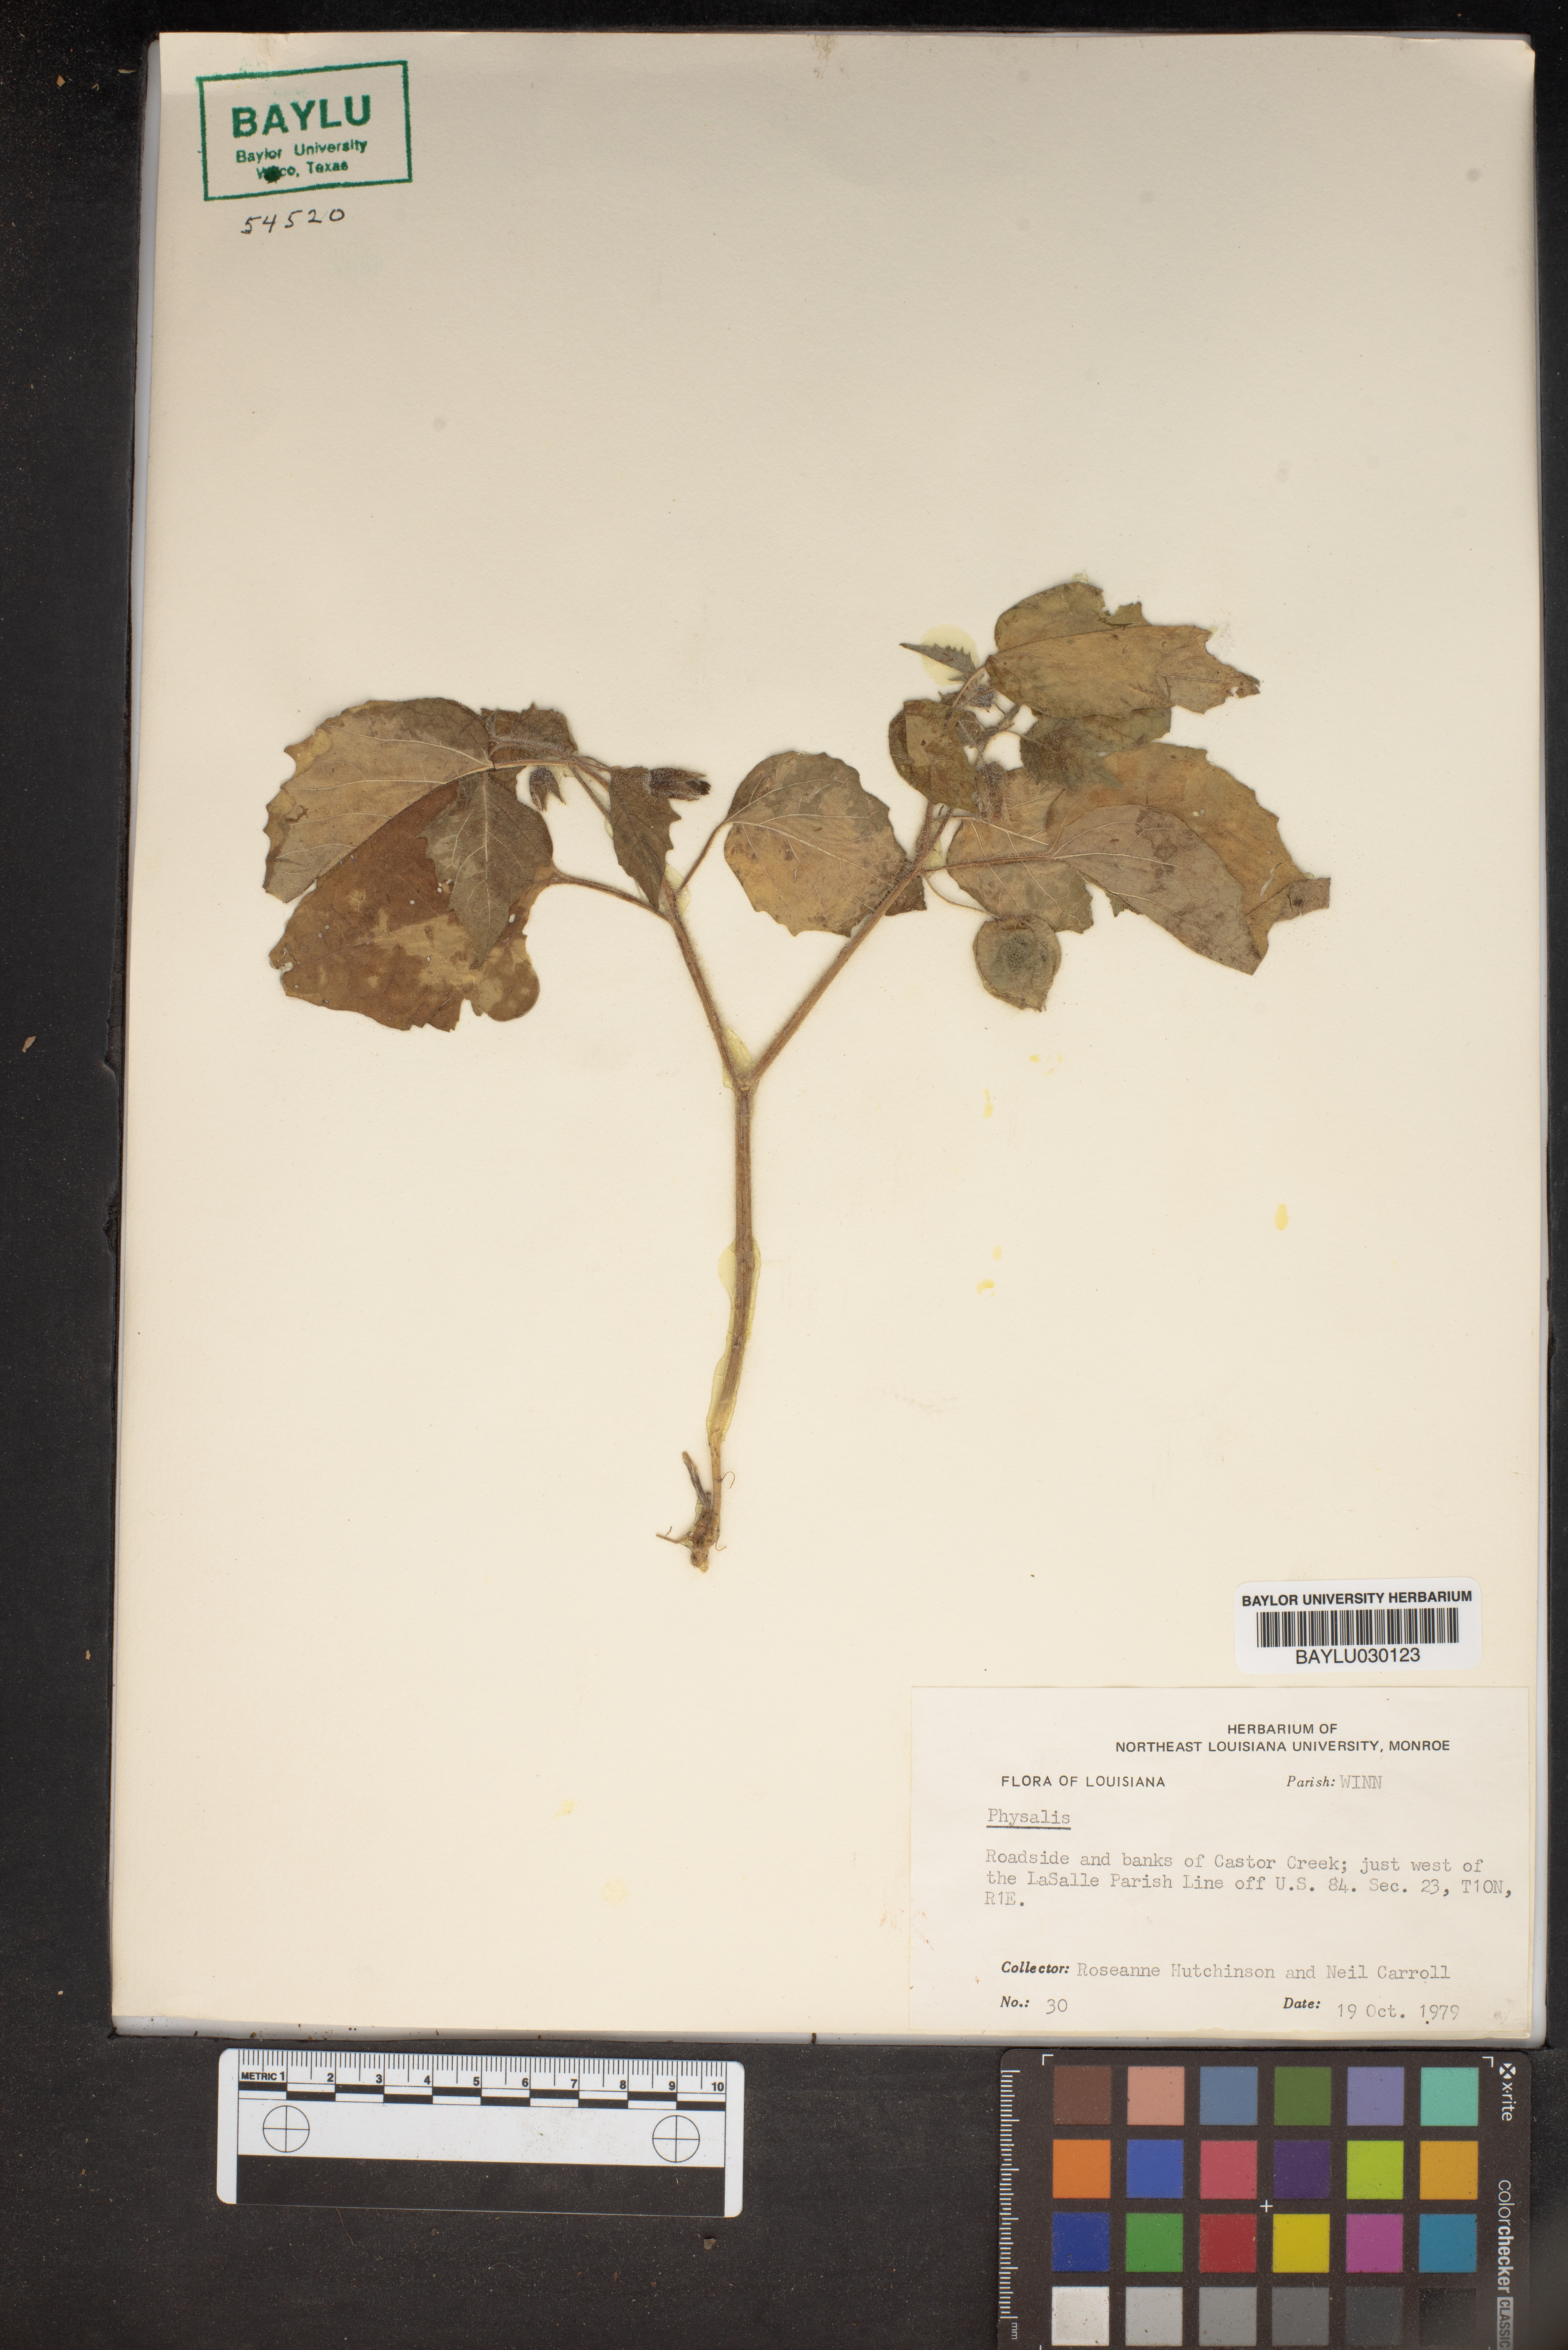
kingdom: Plantae
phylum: Tracheophyta
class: Magnoliopsida
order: Solanales
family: Solanaceae
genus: Physalis
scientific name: Physalis
